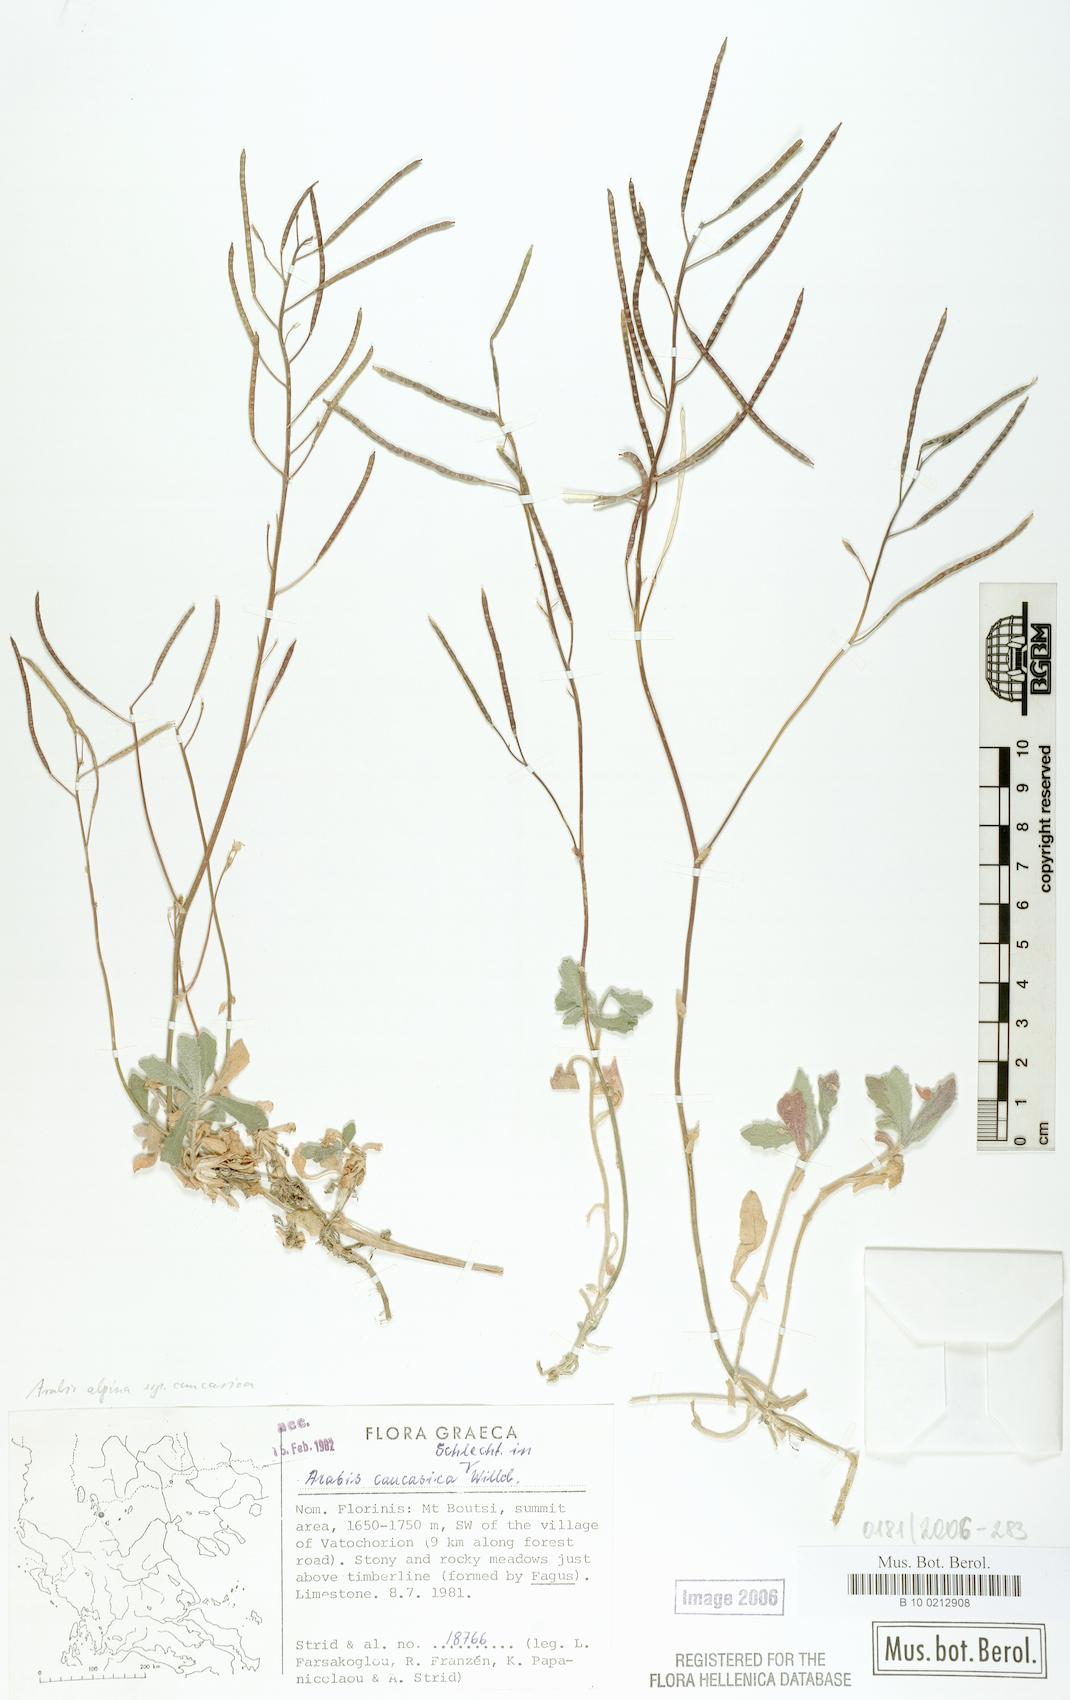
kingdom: Plantae
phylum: Tracheophyta
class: Magnoliopsida
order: Brassicales
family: Brassicaceae
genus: Arabis
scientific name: Arabis alpina
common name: Alpine rock-cress
